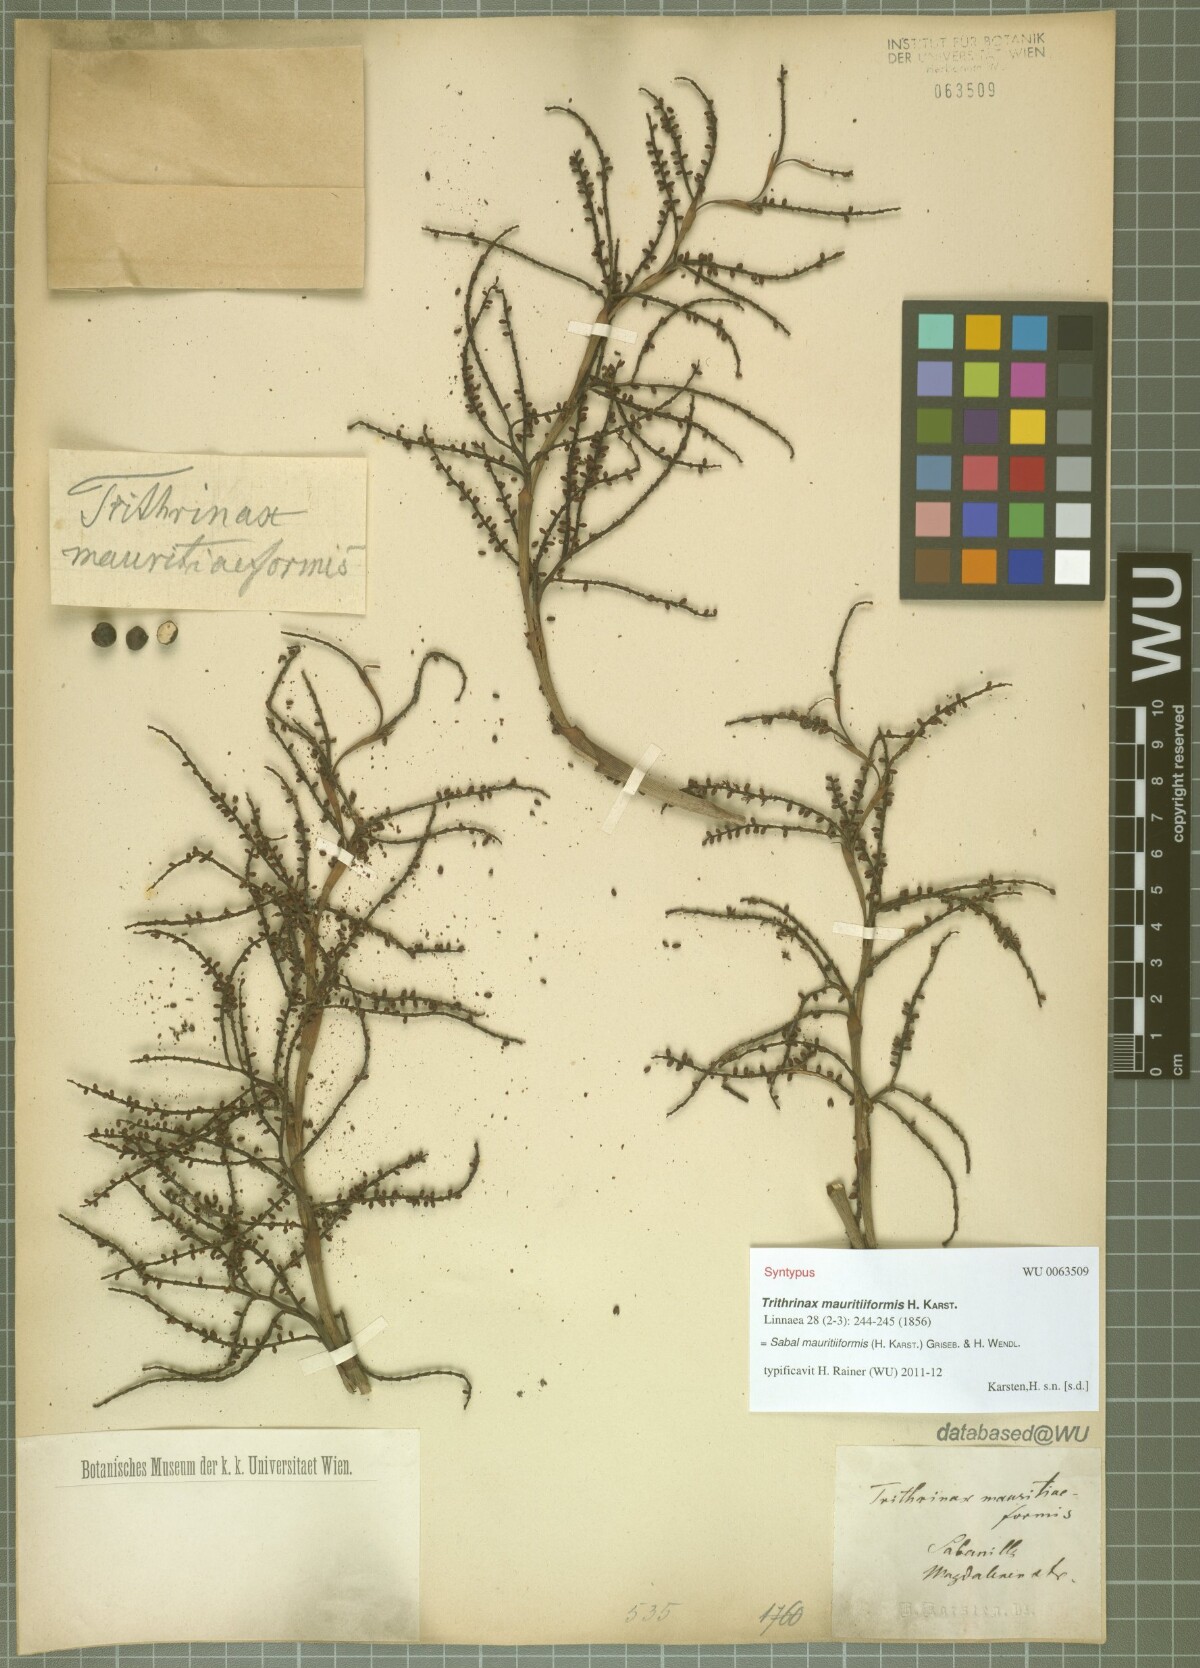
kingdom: Plantae
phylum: Tracheophyta
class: Liliopsida
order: Arecales
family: Arecaceae
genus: Sabal
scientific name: Sabal mauritiiformis
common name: Trinidad palm
